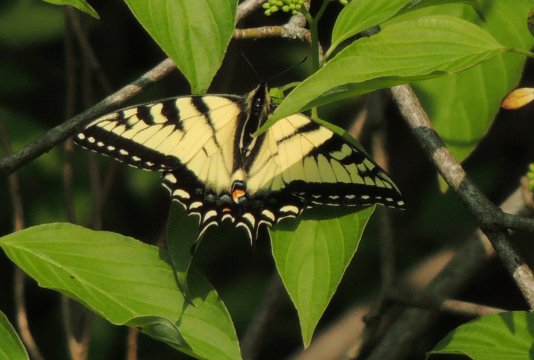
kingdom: Animalia
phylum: Arthropoda
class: Insecta
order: Lepidoptera
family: Papilionidae
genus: Pterourus
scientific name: Pterourus glaucus
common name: Eastern Tiger Swallowtail
